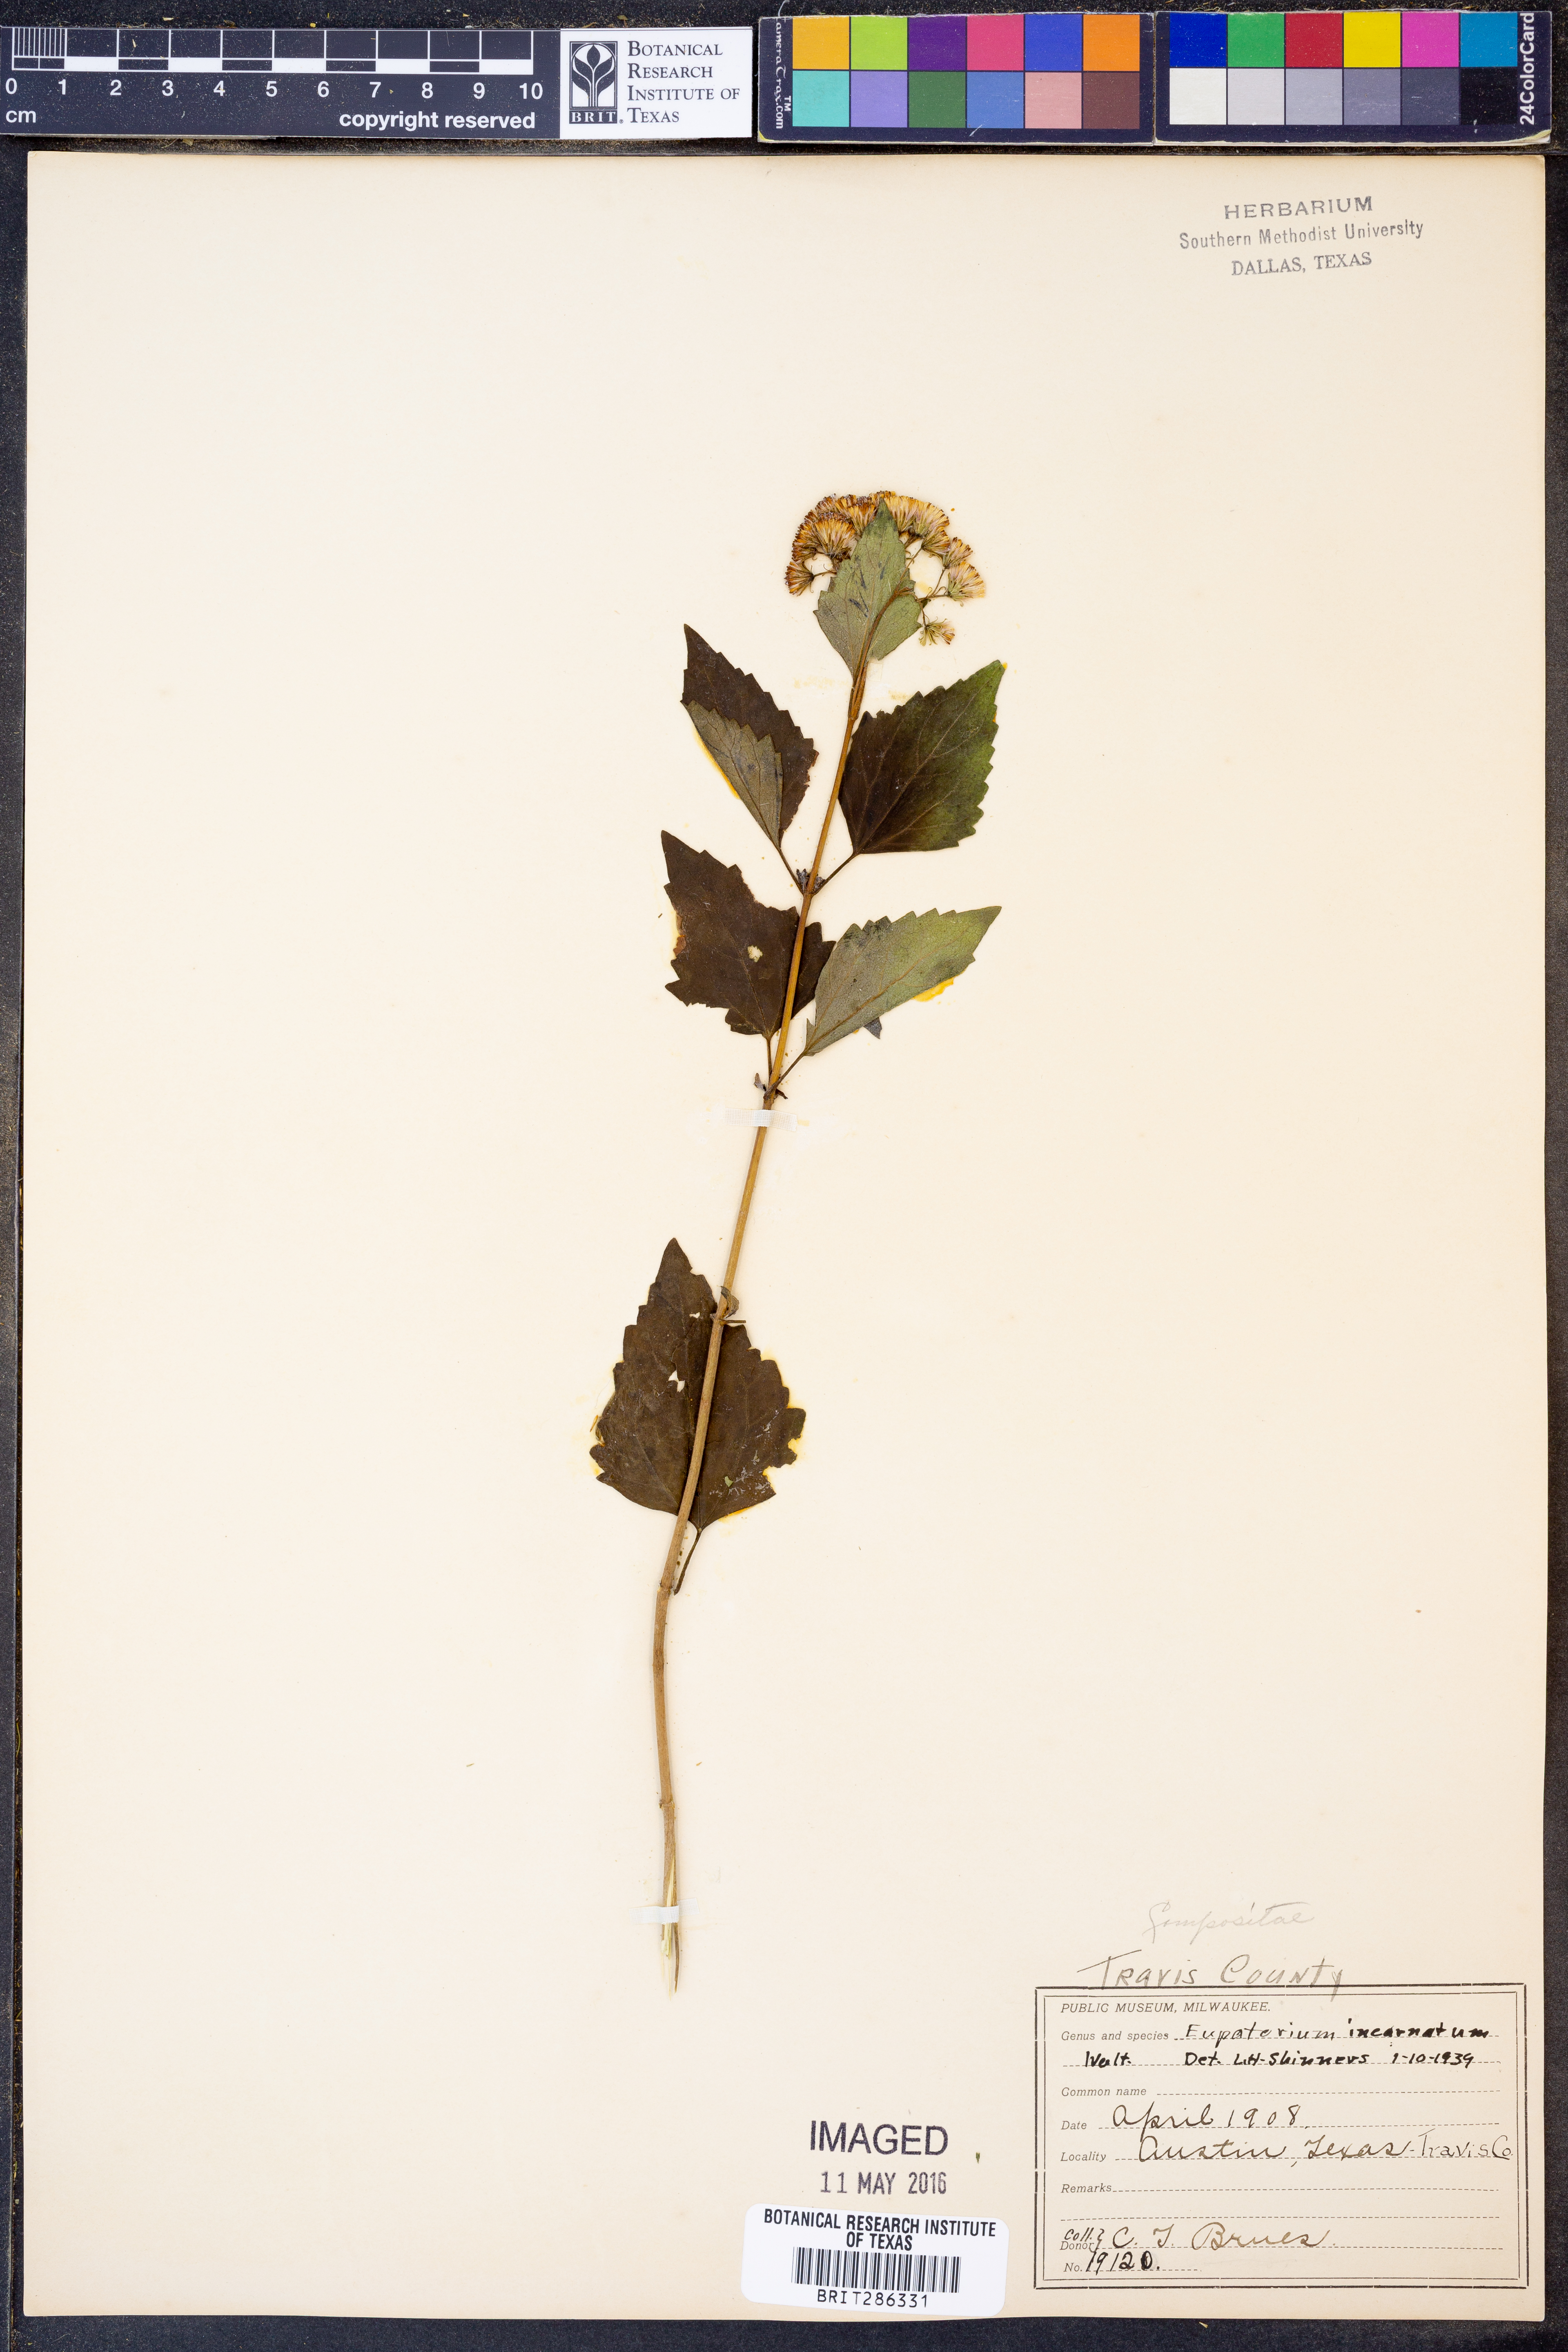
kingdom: Plantae
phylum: Tracheophyta
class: Magnoliopsida
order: Asterales
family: Asteraceae
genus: Fleischmannia
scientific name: Fleischmannia incarnata
